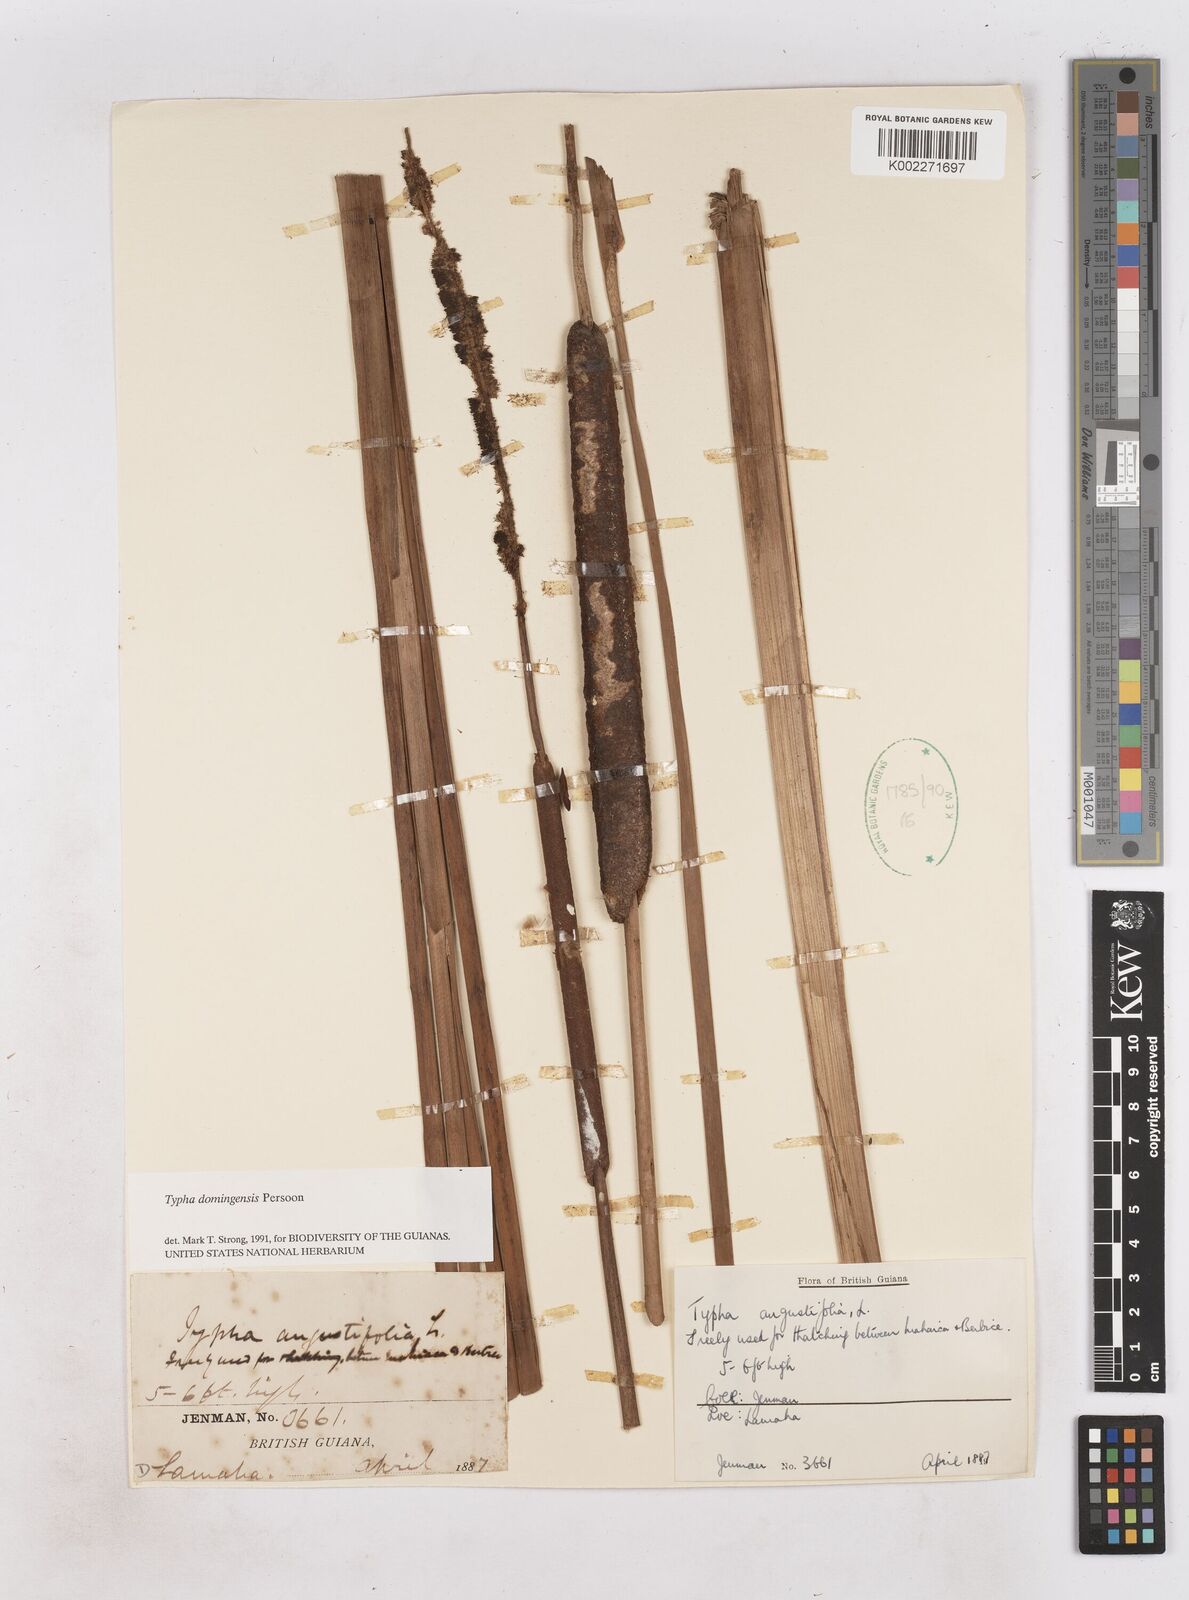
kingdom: Plantae
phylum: Tracheophyta
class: Liliopsida
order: Poales
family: Typhaceae
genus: Typha
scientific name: Typha domingensis
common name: Southern cattail
